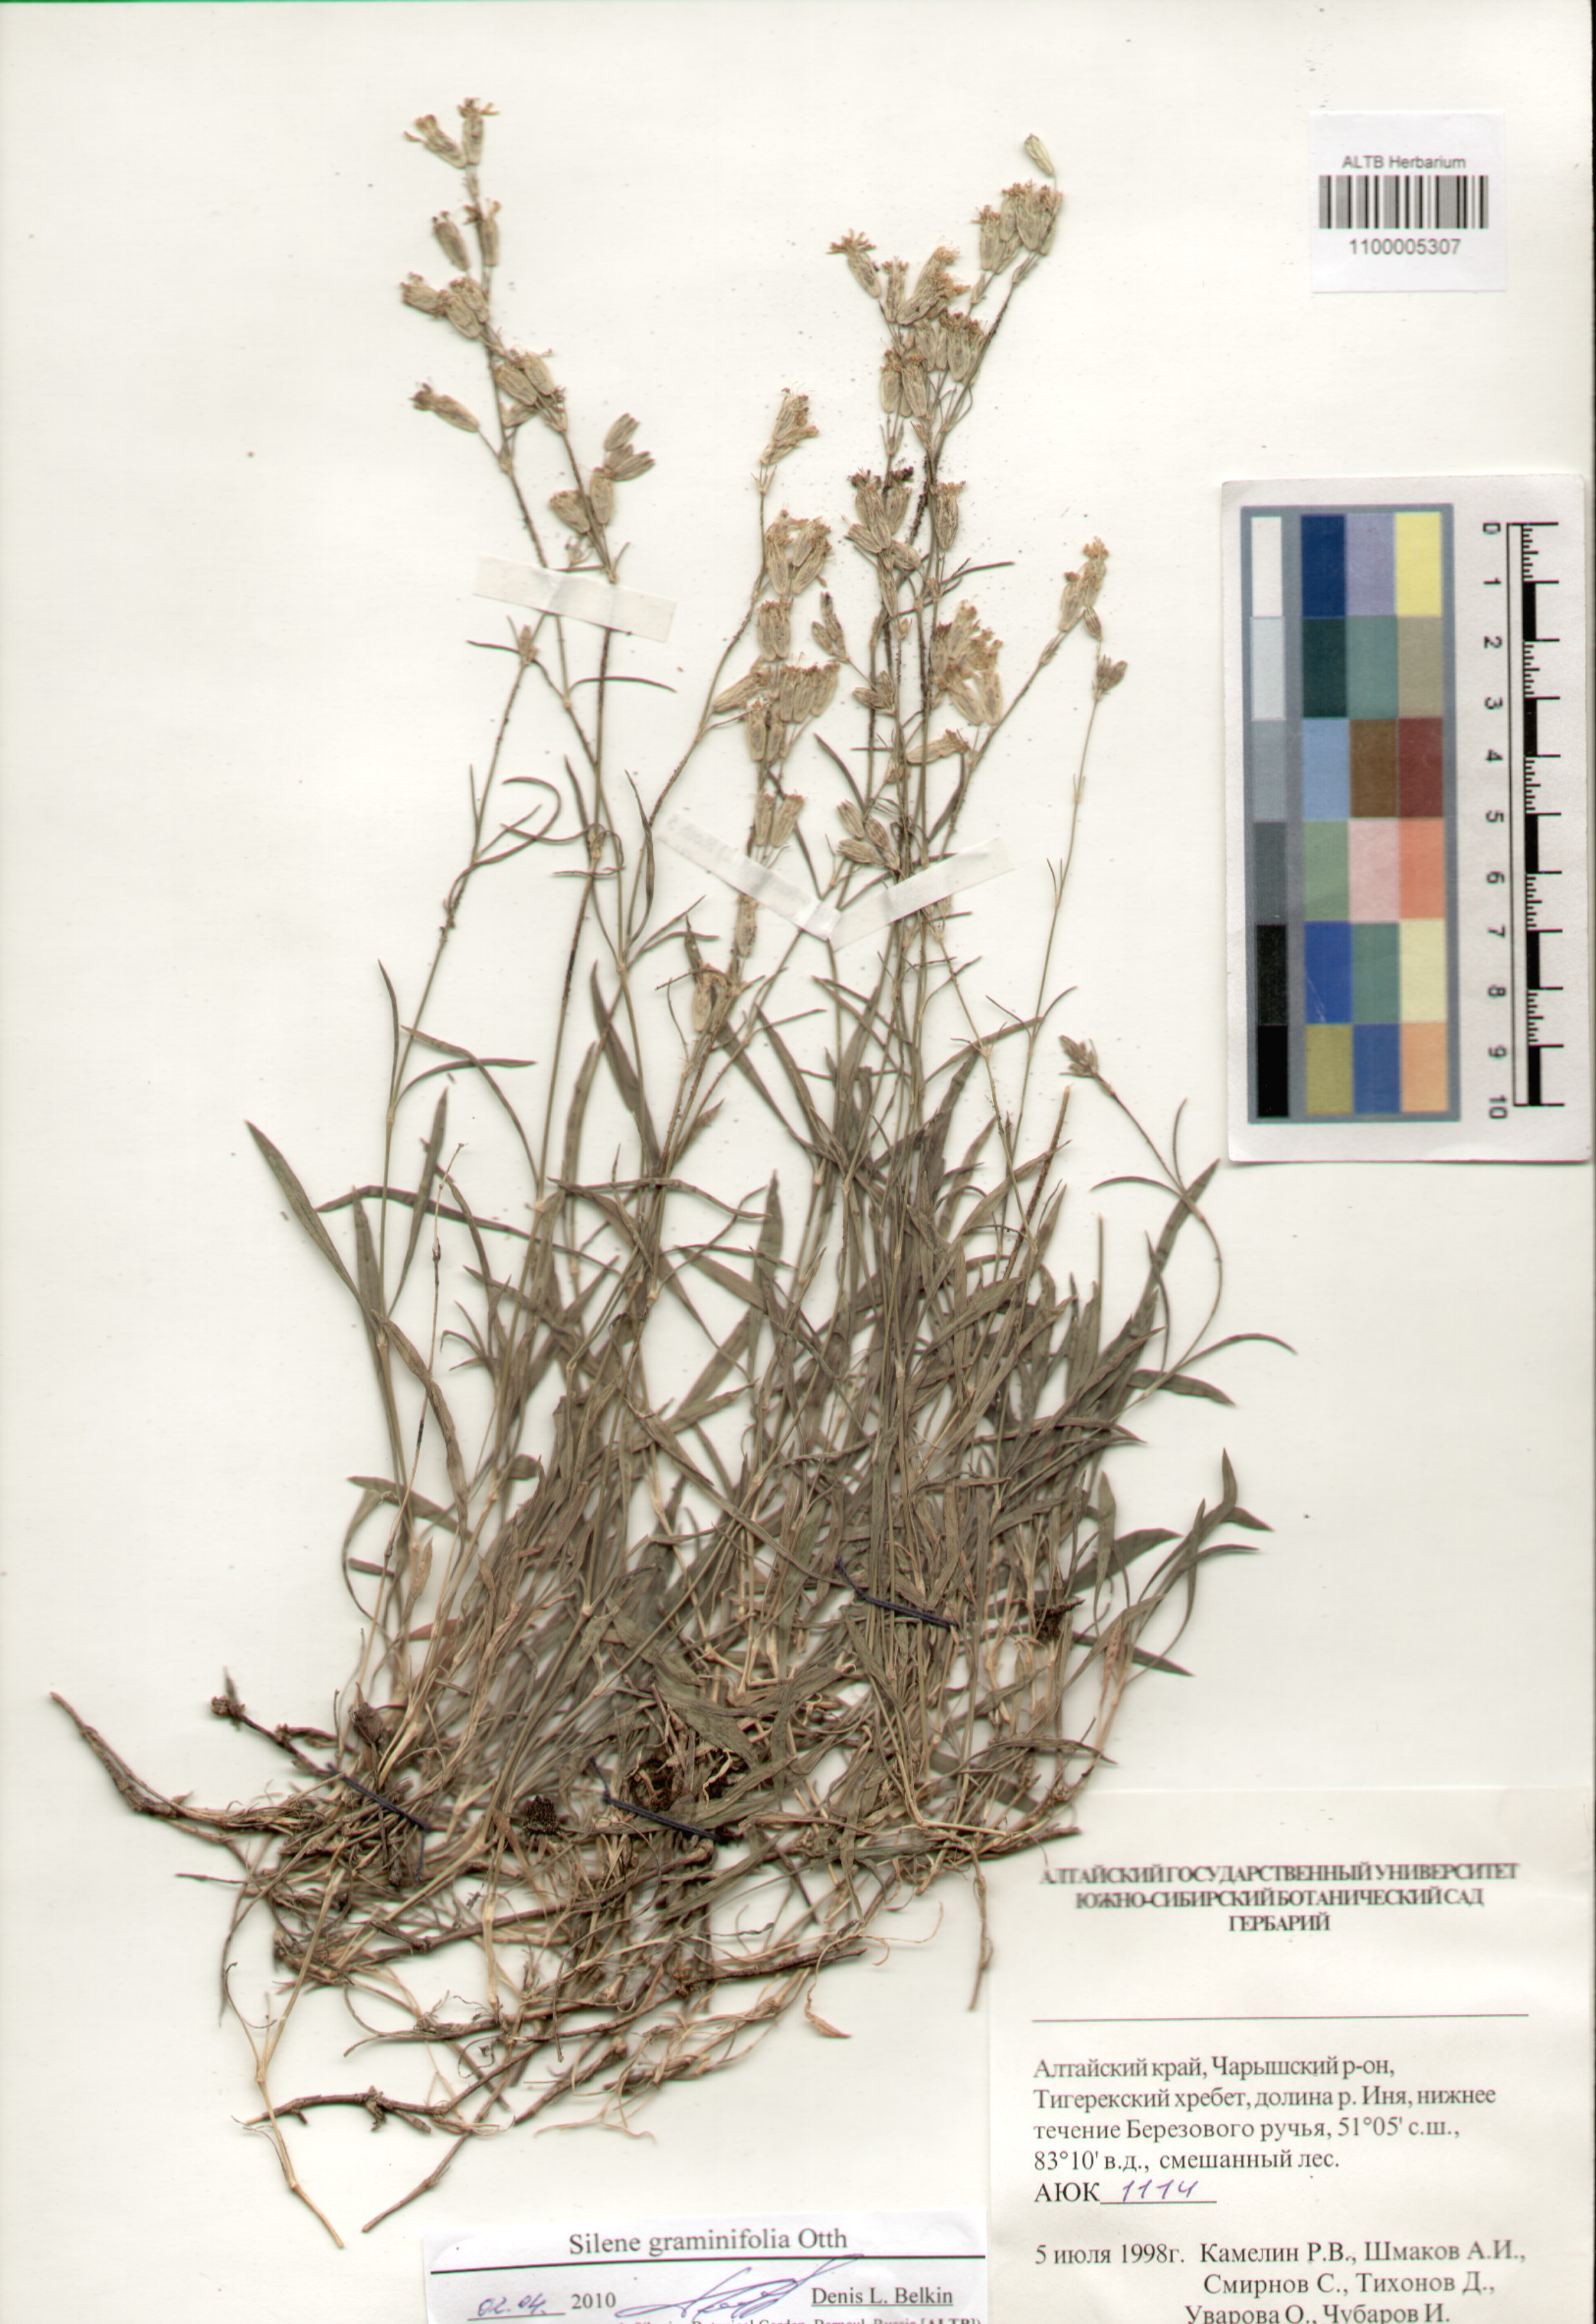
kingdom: Plantae
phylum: Tracheophyta
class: Magnoliopsida
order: Caryophyllales
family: Caryophyllaceae
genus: Silene
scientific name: Silene graminifolia
